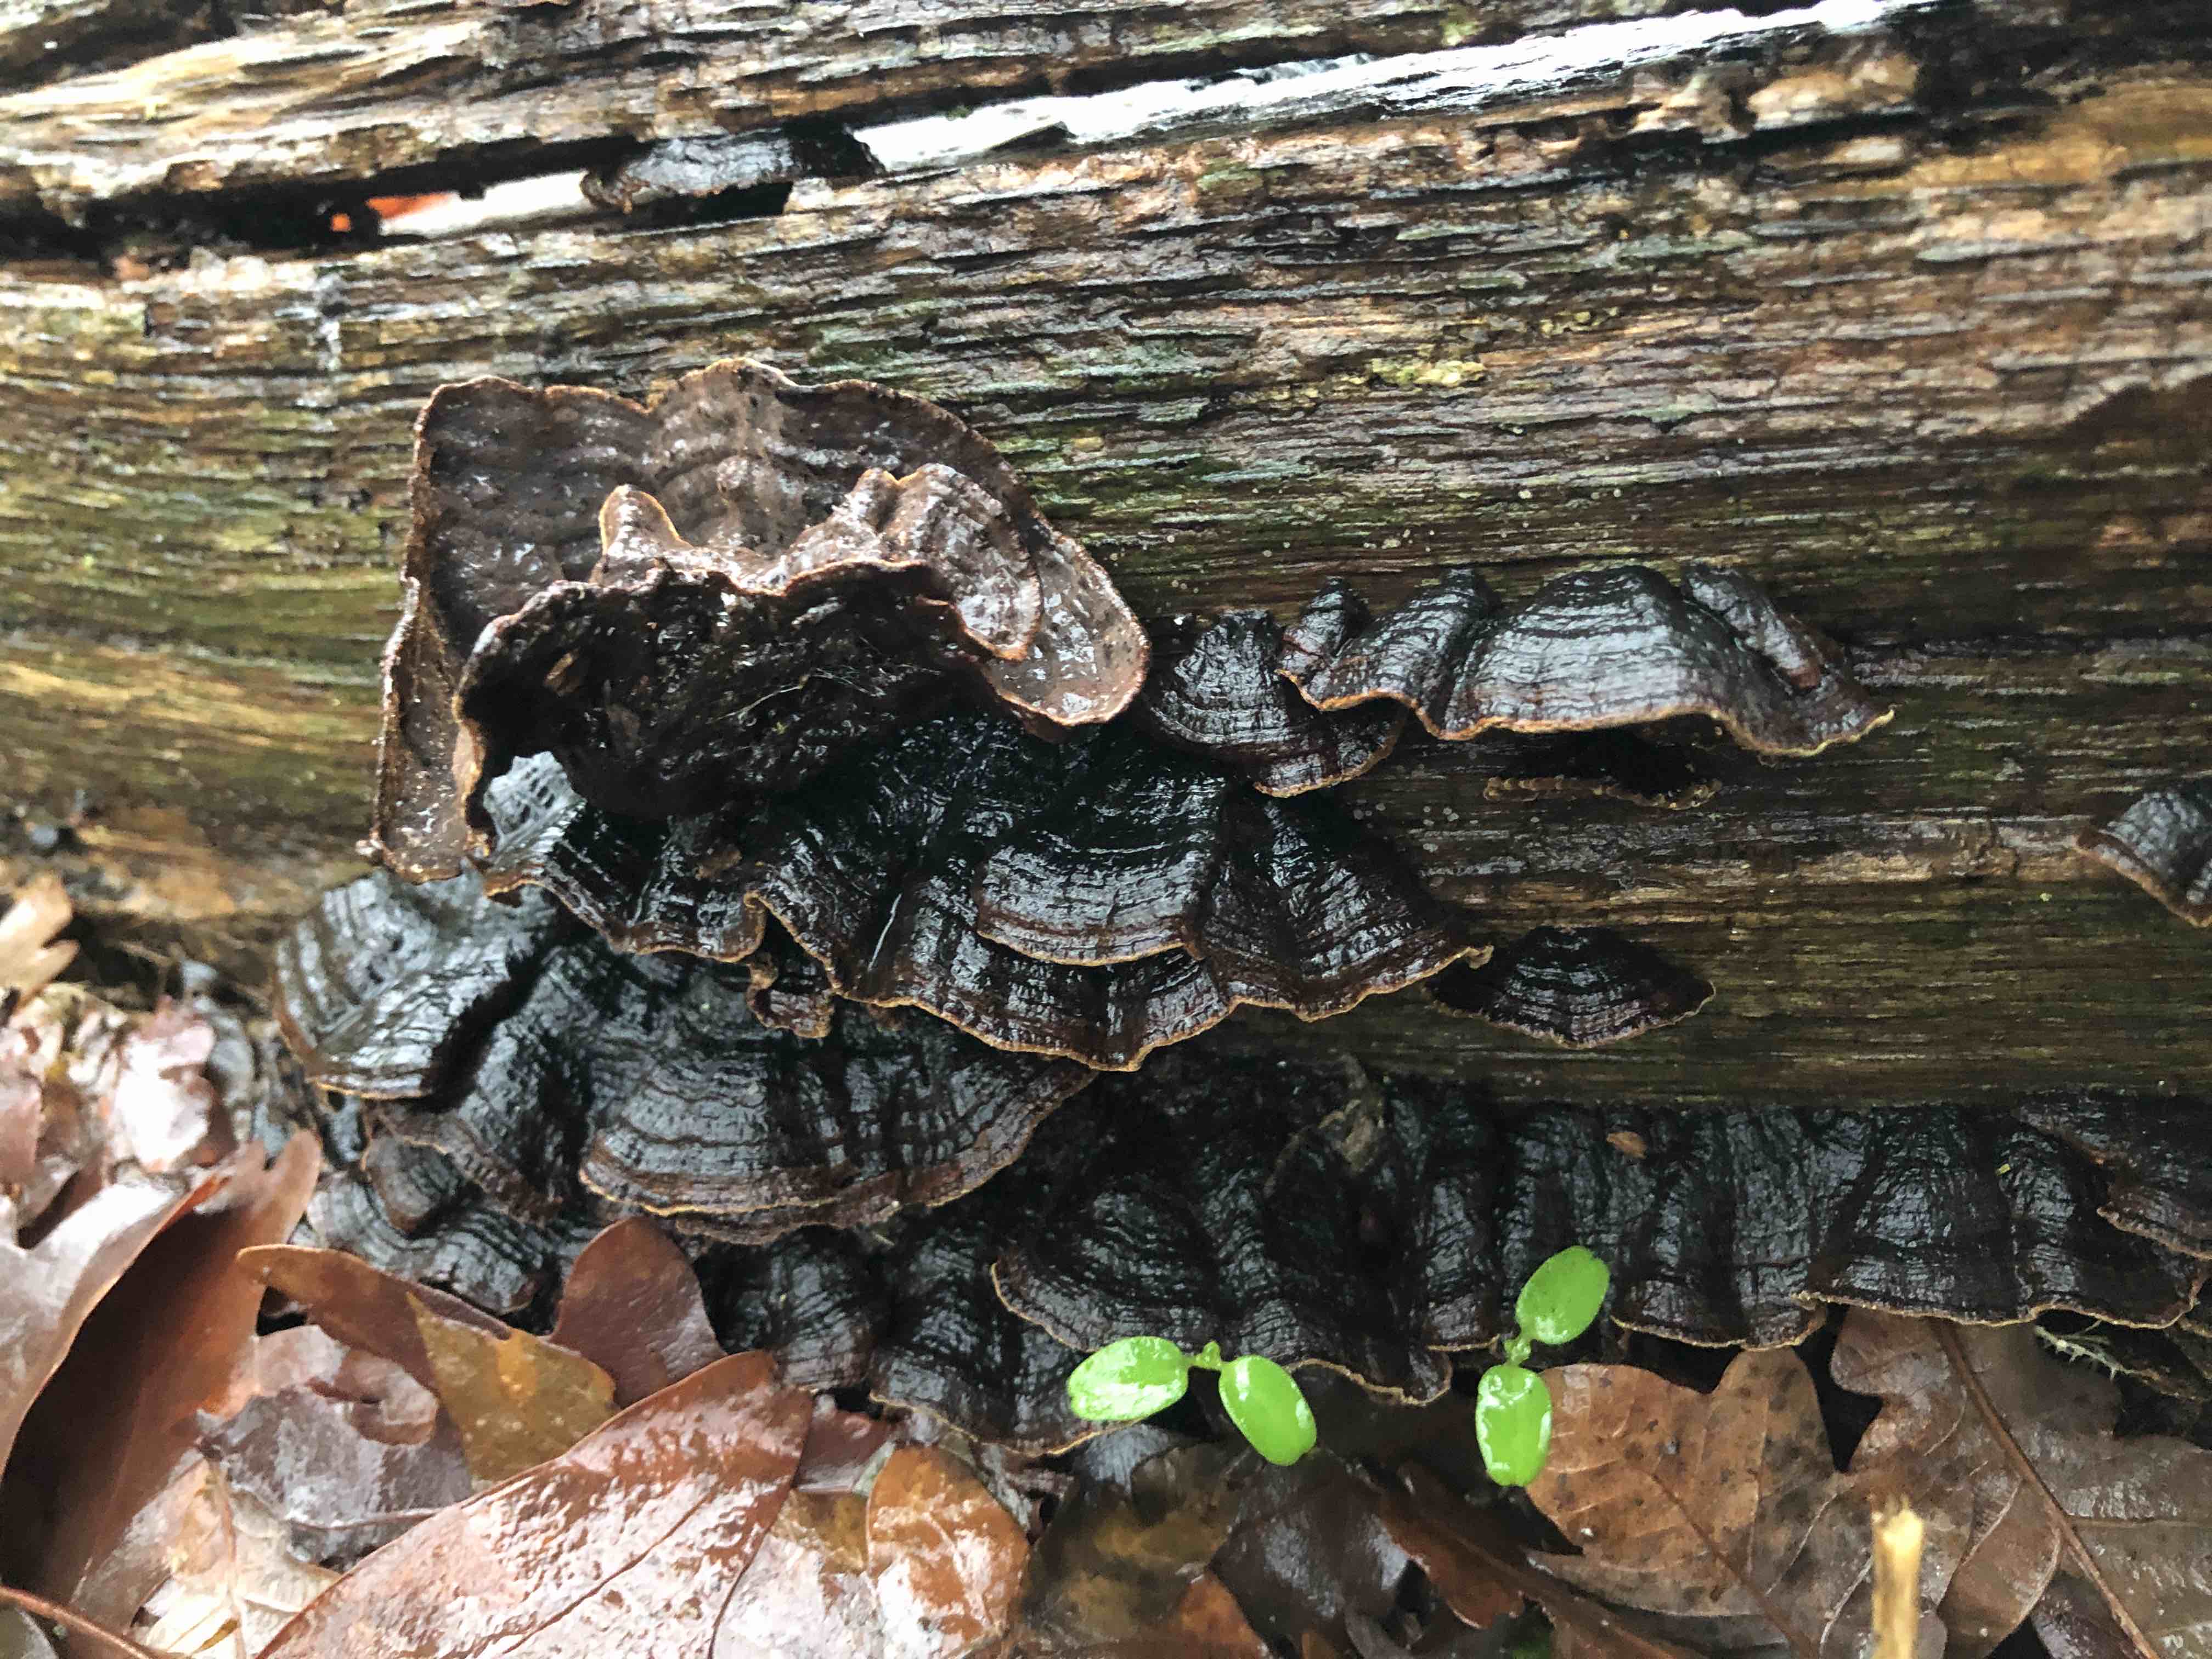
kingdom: Fungi
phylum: Basidiomycota
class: Agaricomycetes
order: Hymenochaetales
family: Hymenochaetaceae
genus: Hymenochaete
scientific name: Hymenochaete rubiginosa
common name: stiv ruslædersvamp
